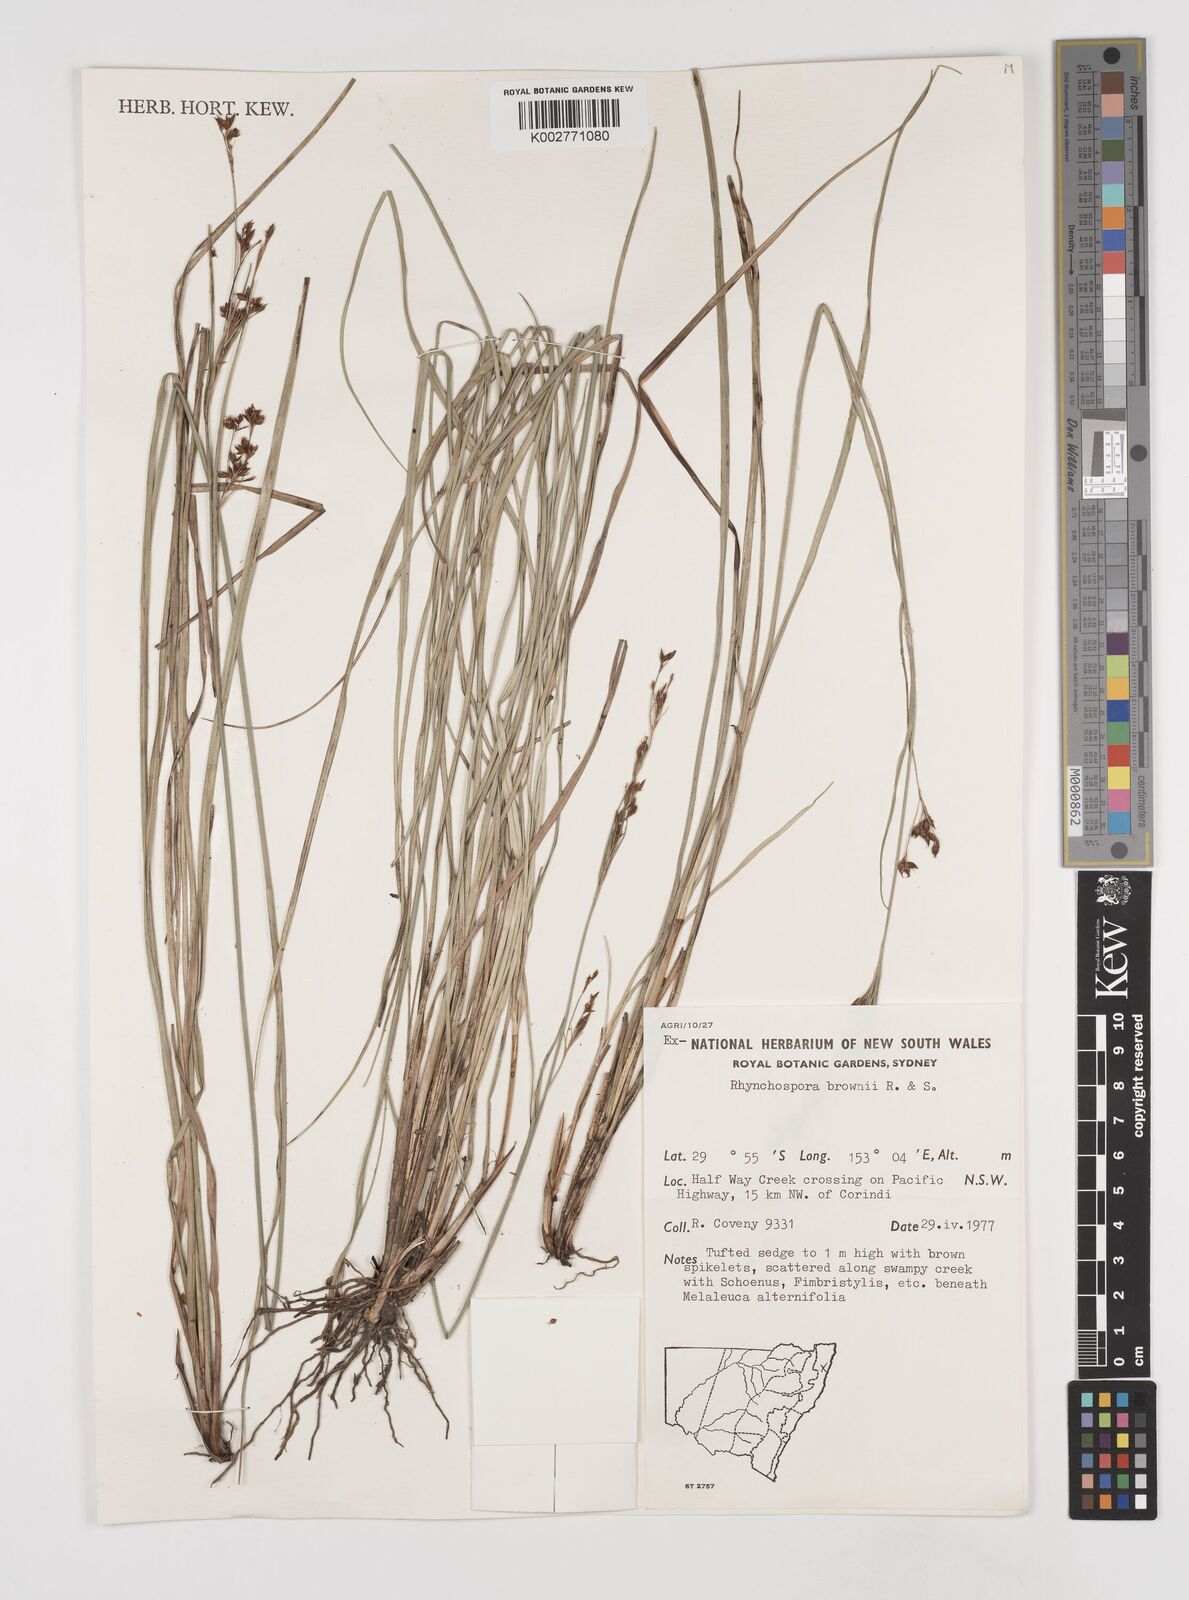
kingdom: Plantae
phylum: Tracheophyta
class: Liliopsida
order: Poales
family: Cyperaceae
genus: Rhynchospora
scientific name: Rhynchospora rugosa
